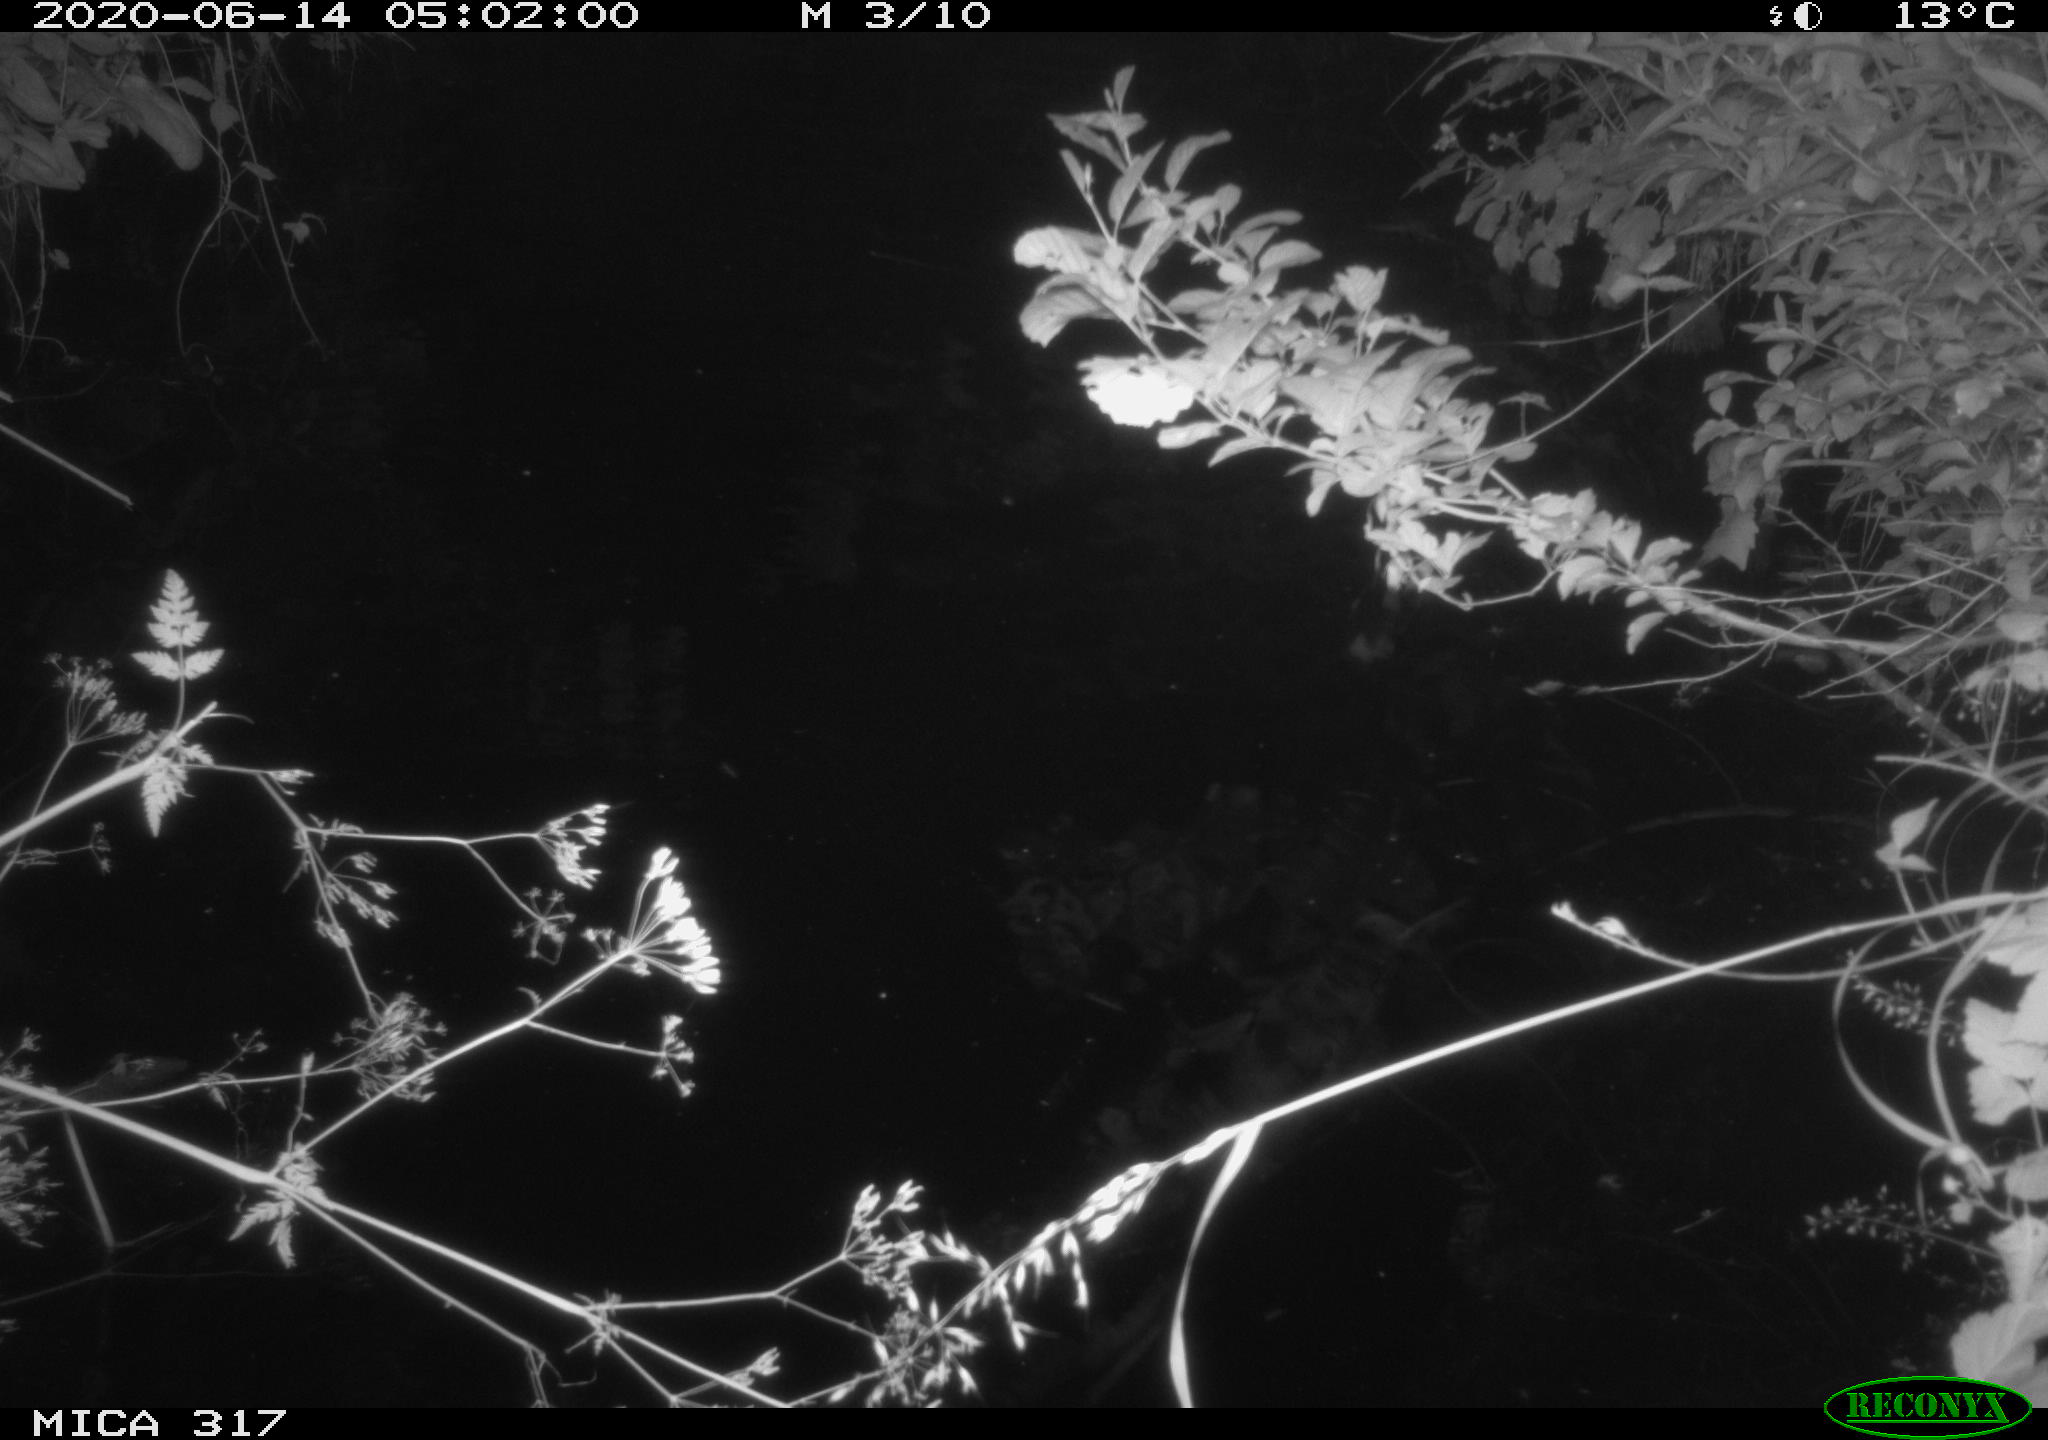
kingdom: Animalia
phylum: Chordata
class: Aves
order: Anseriformes
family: Anatidae
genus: Anas
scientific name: Anas platyrhynchos
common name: Mallard
